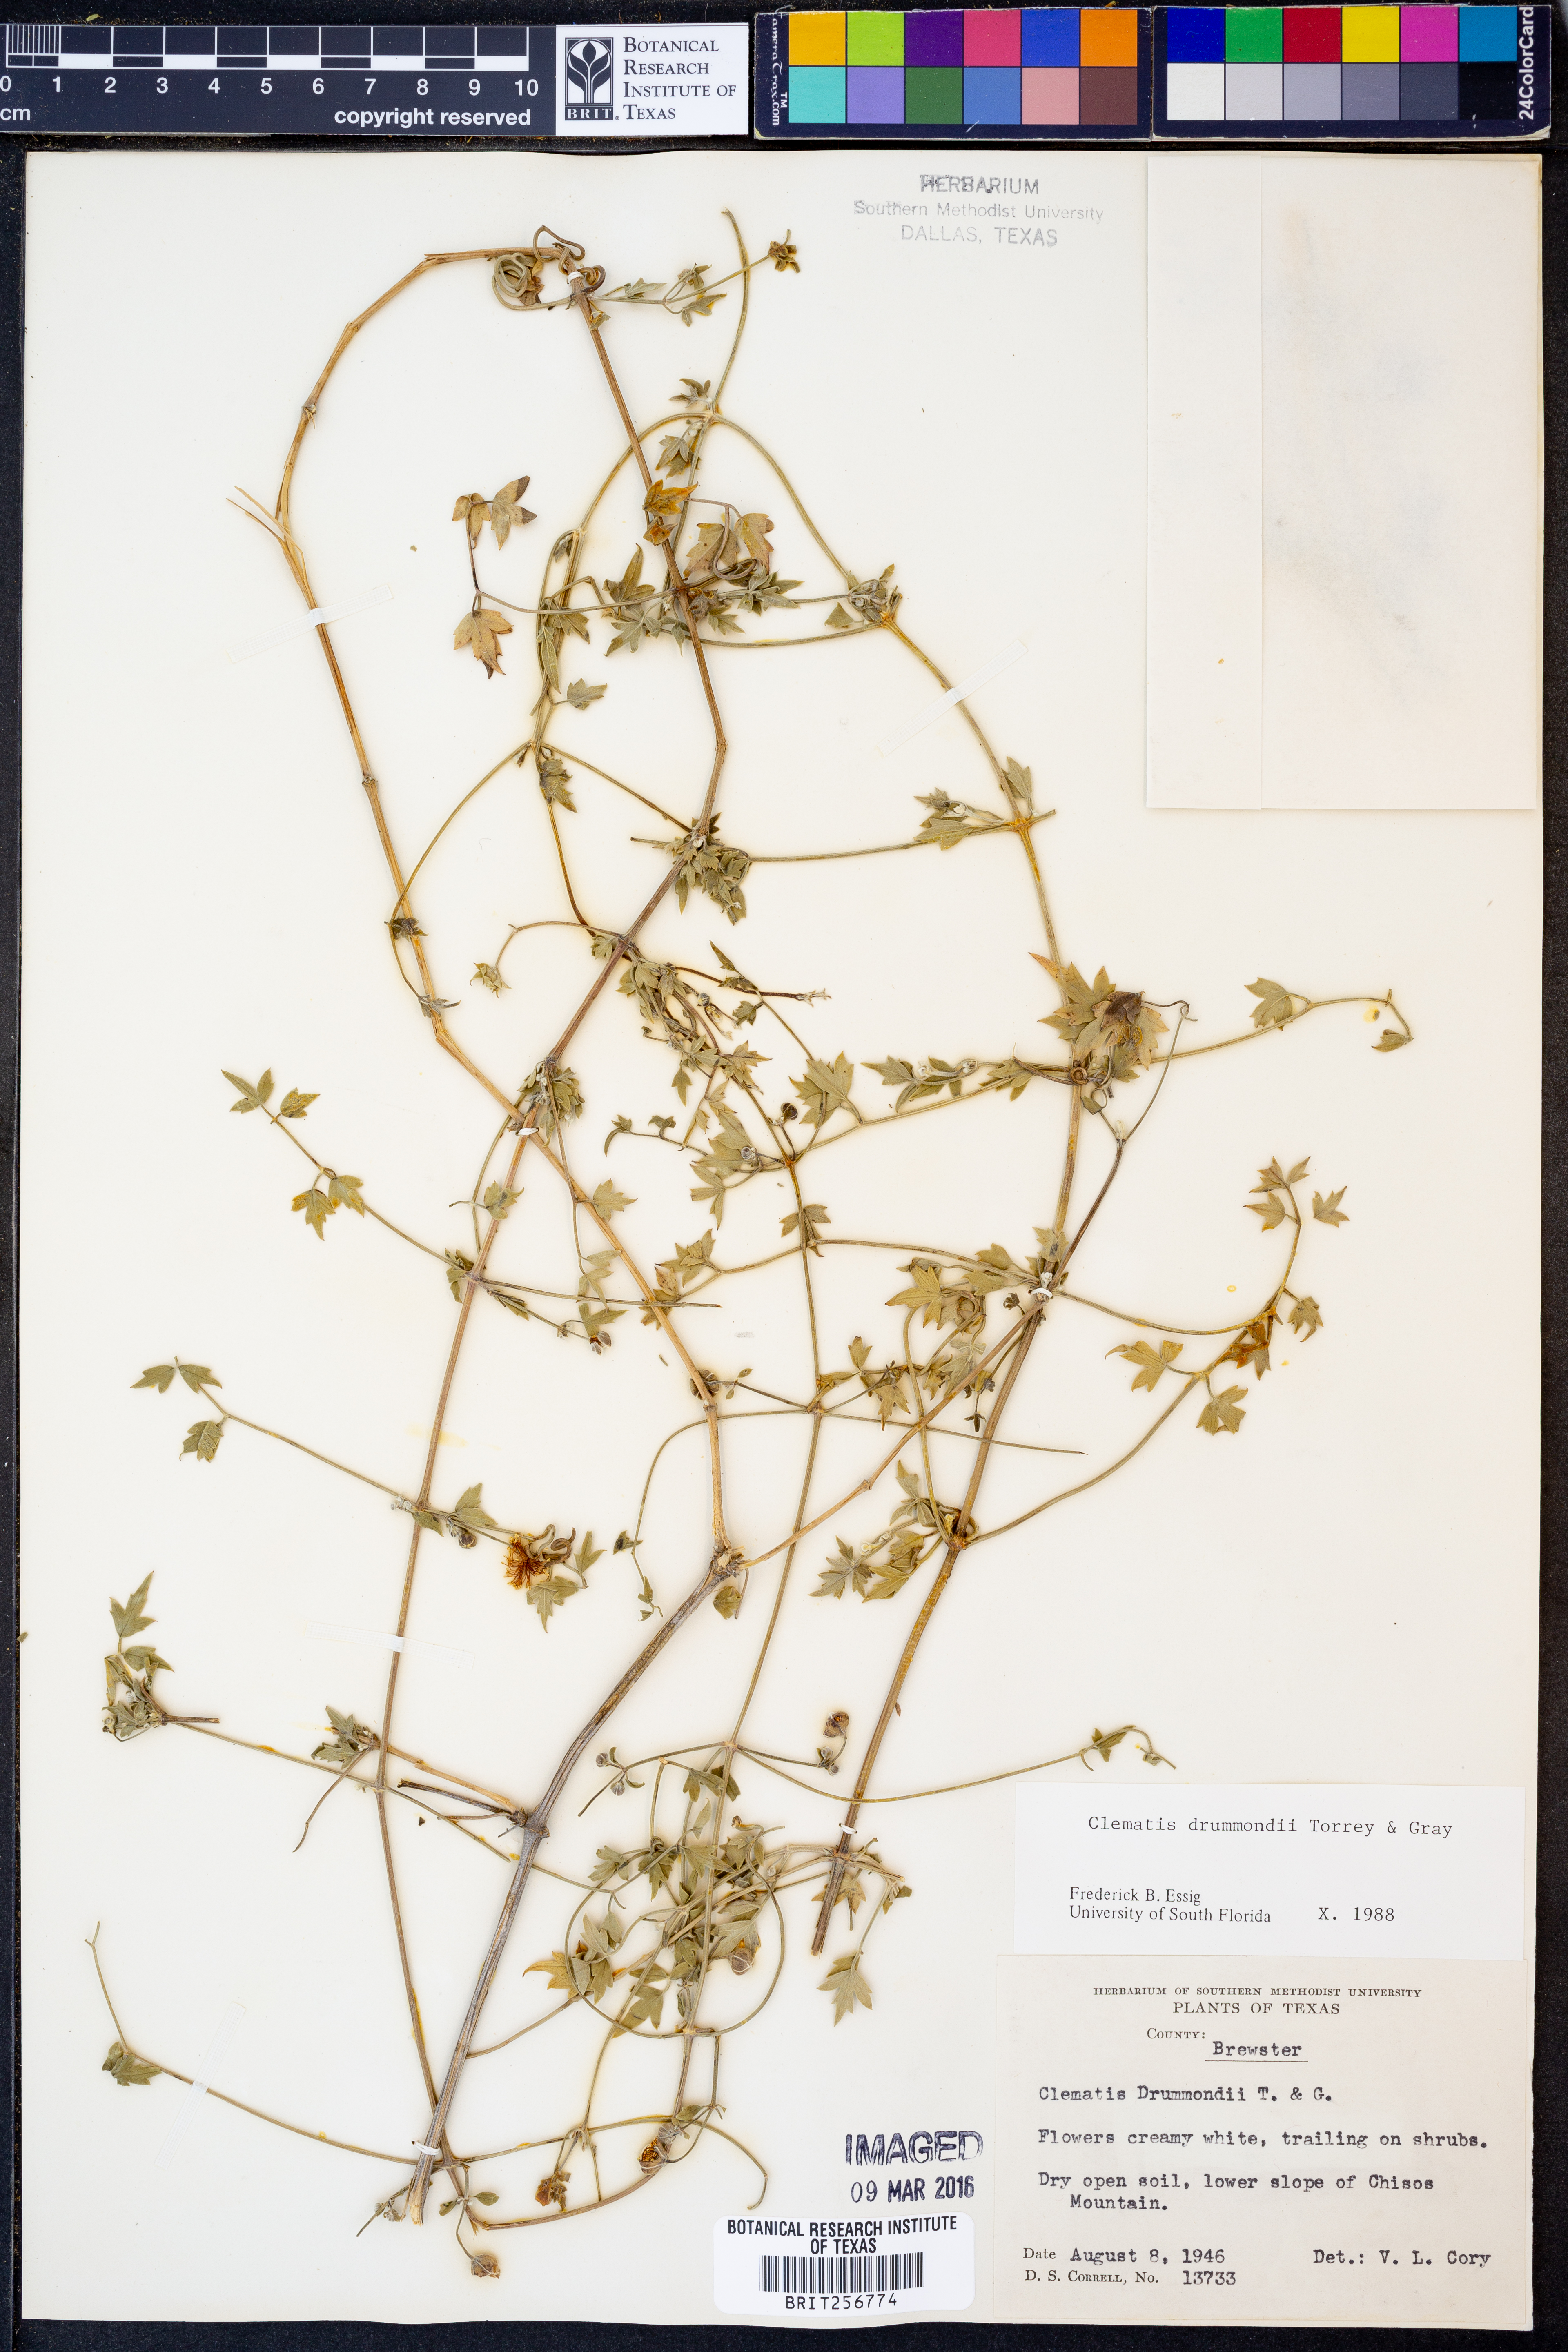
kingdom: Plantae
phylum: Tracheophyta
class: Magnoliopsida
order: Ranunculales
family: Ranunculaceae
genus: Clematis
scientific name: Clematis drummondii
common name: Texas virgin's bower
